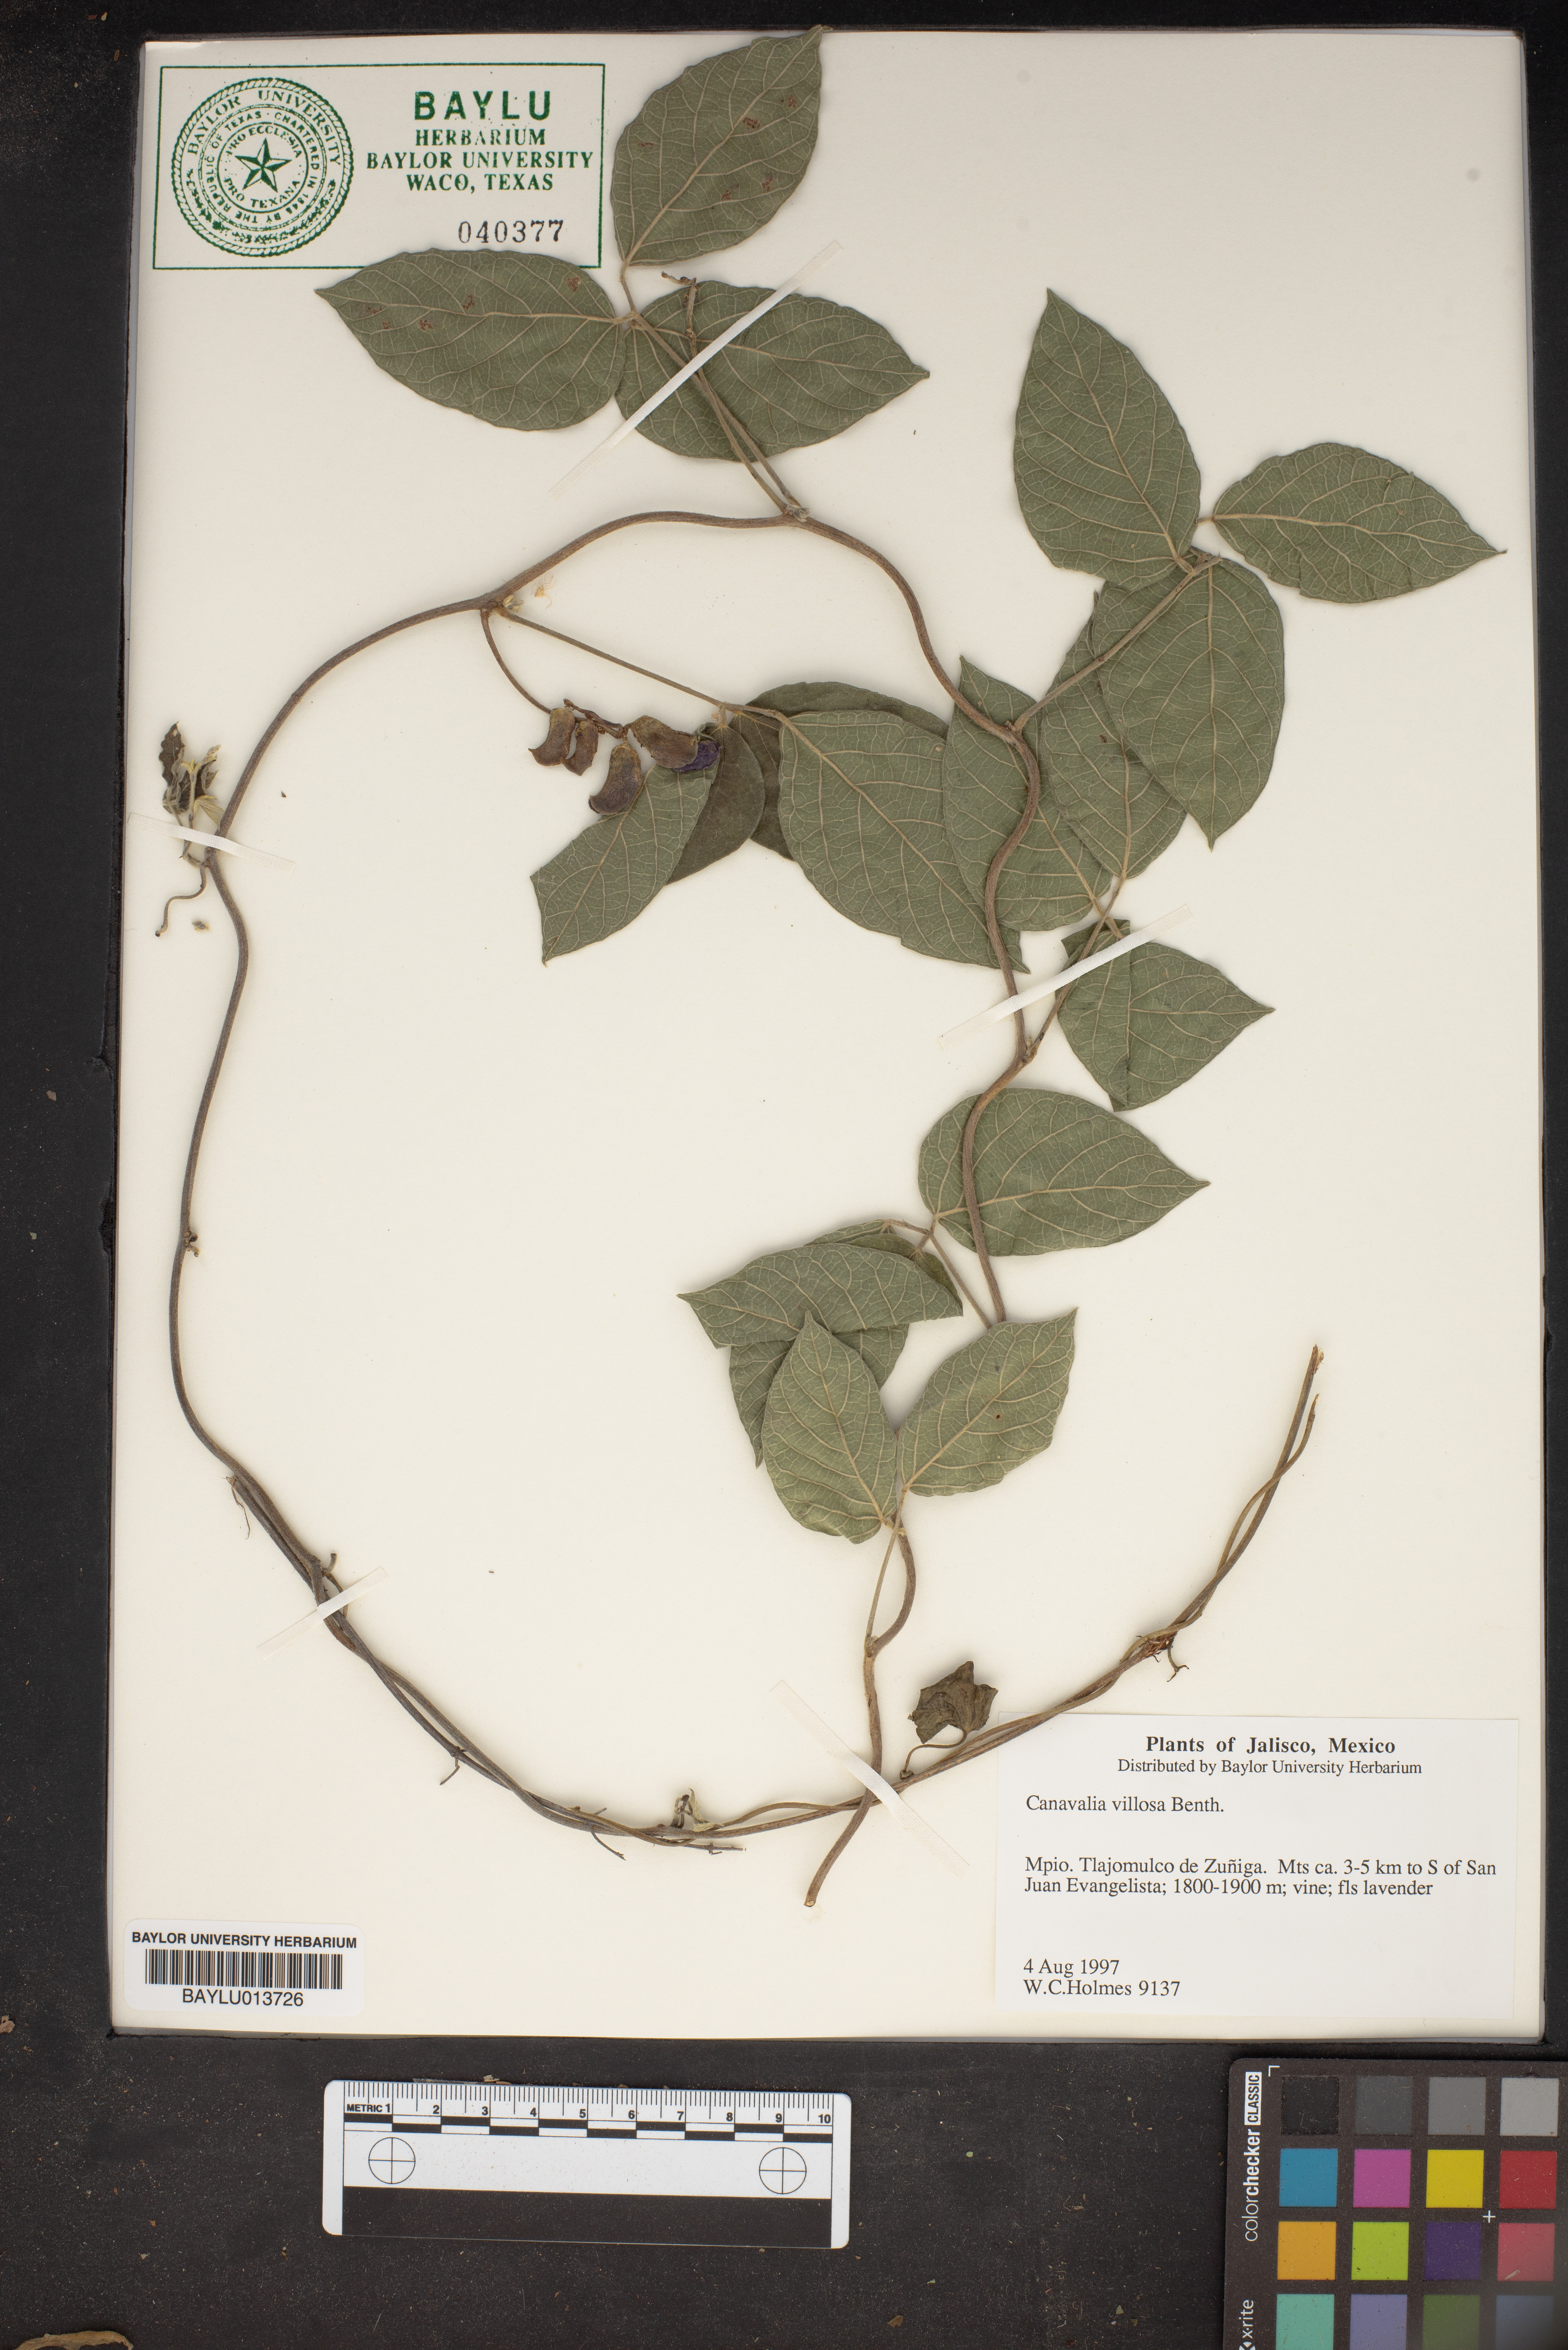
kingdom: Plantae
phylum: Tracheophyta
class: Magnoliopsida
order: Fabales
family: Fabaceae
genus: Canavalia
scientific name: Canavalia villosa
